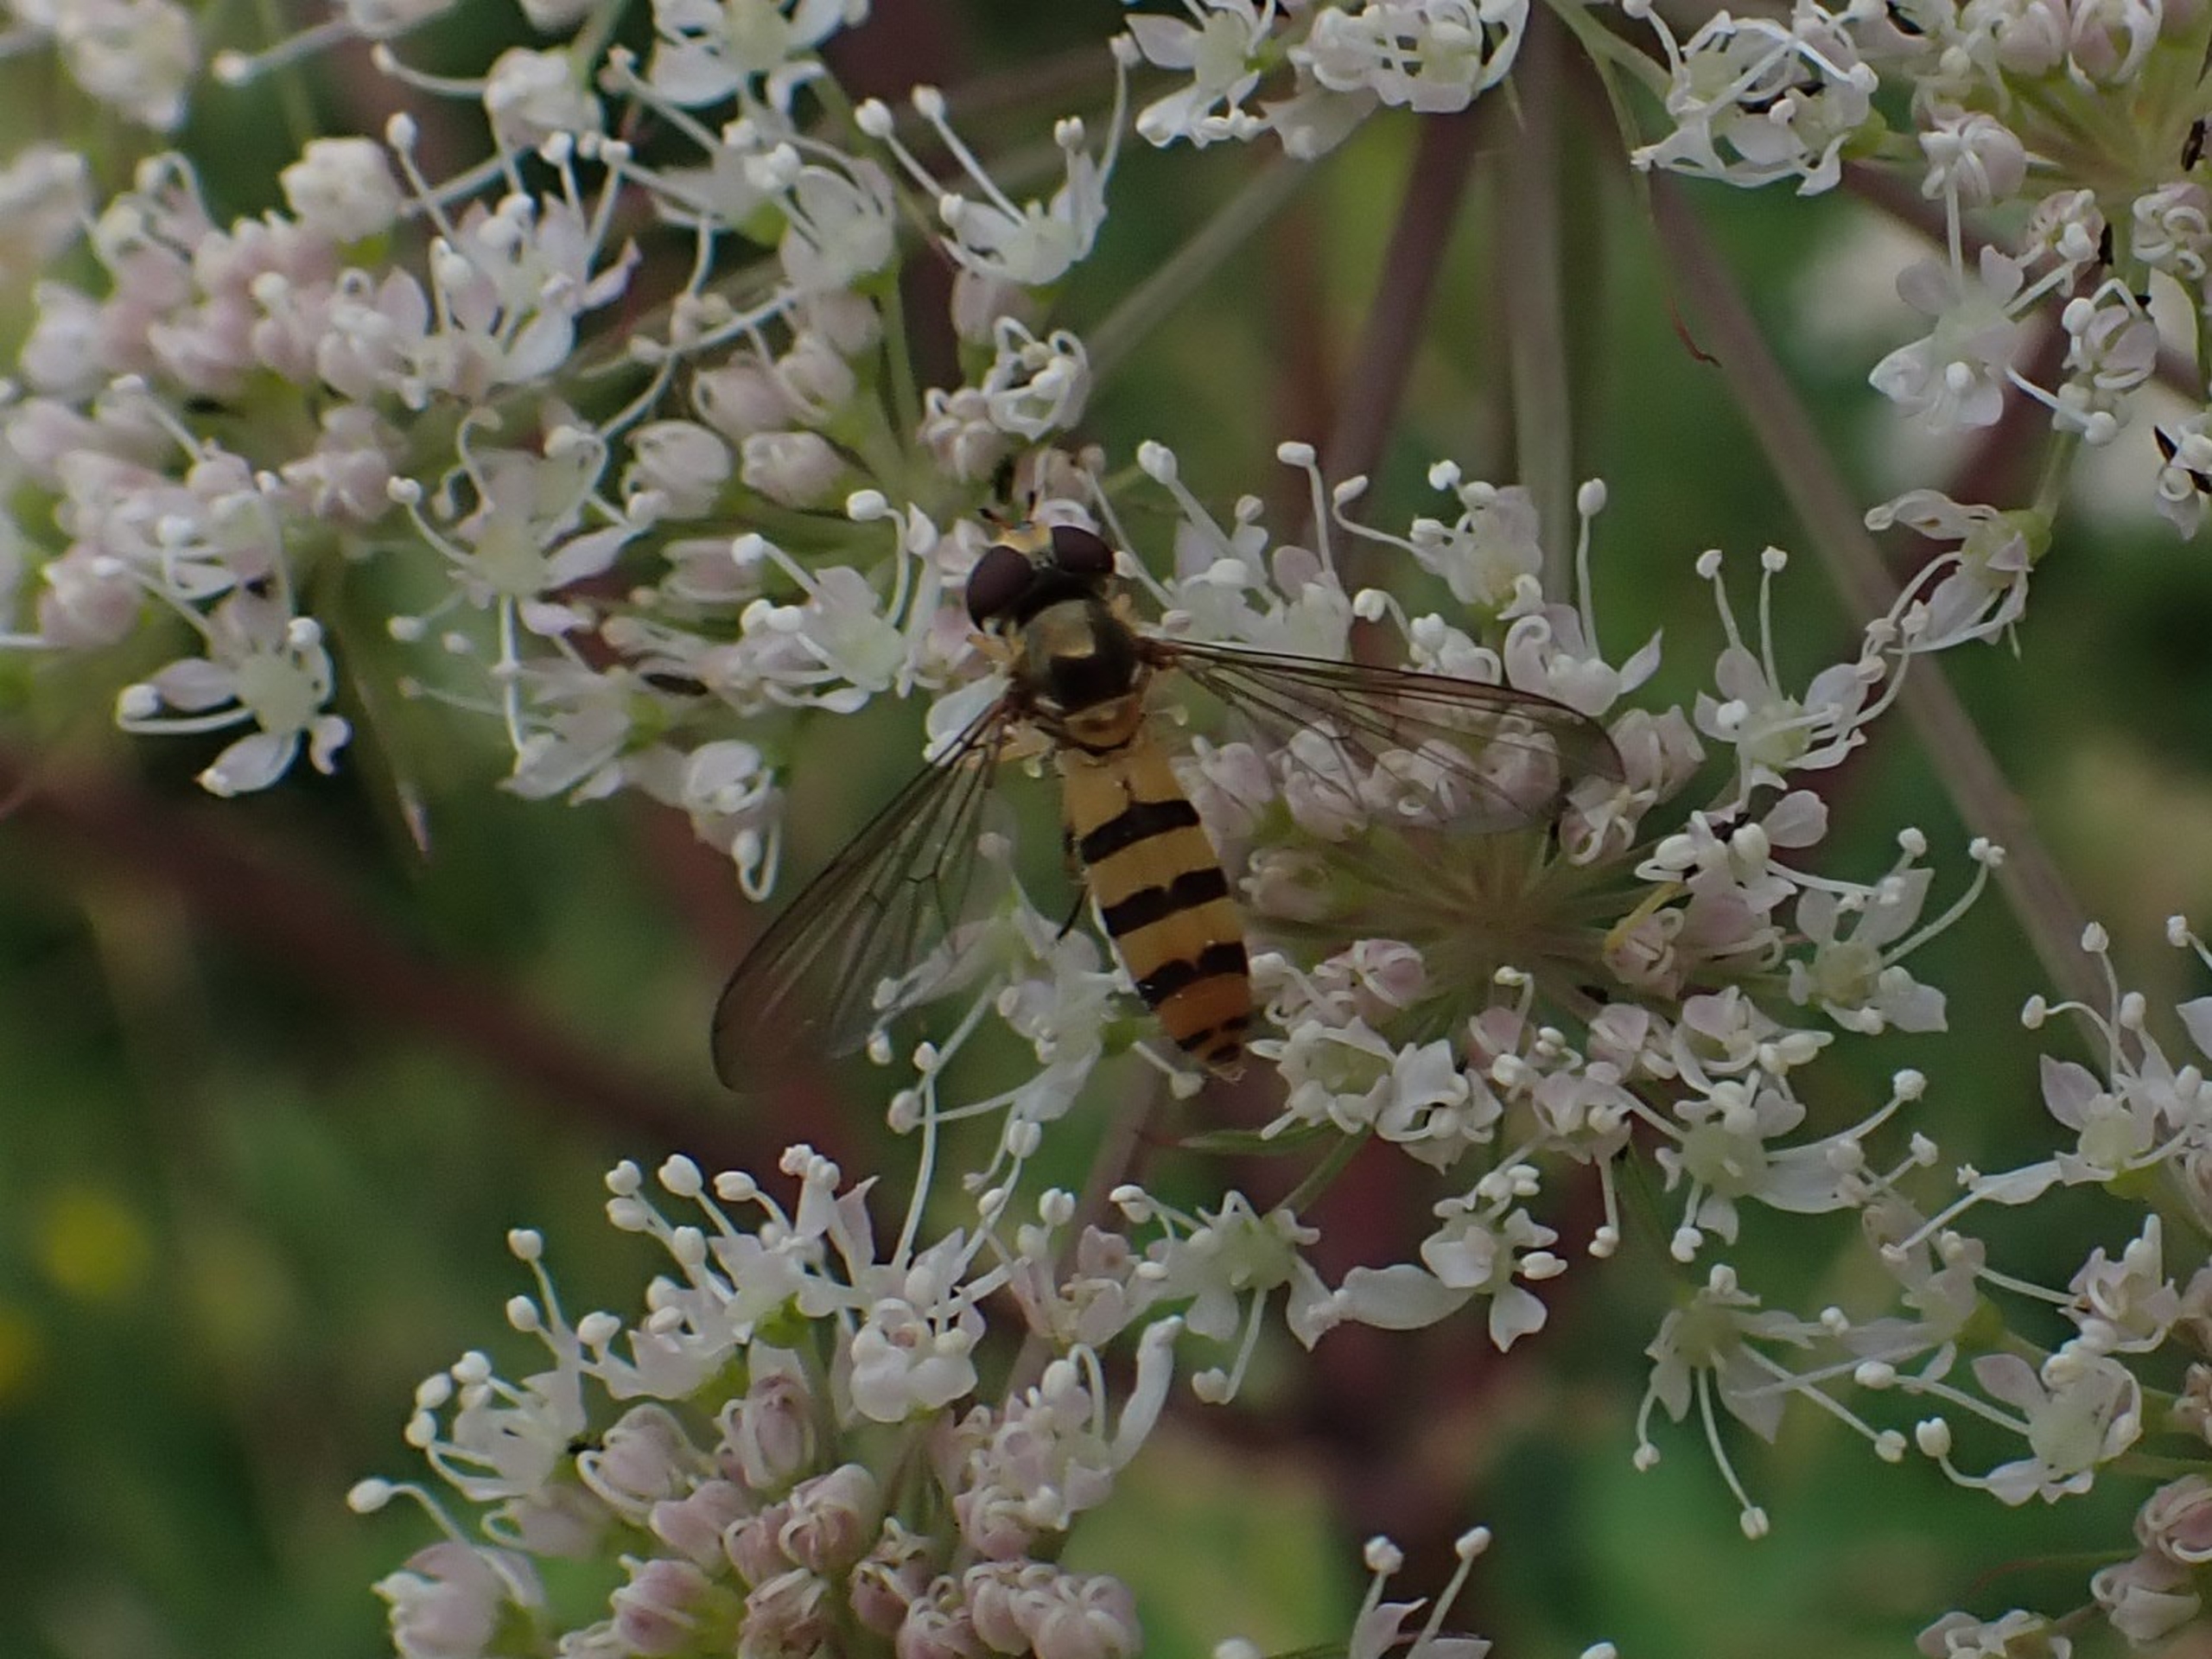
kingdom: Animalia
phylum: Arthropoda
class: Insecta
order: Diptera
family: Syrphidae
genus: Meliscaeva
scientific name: Meliscaeva cinctella
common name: Bælte-svirreflue
